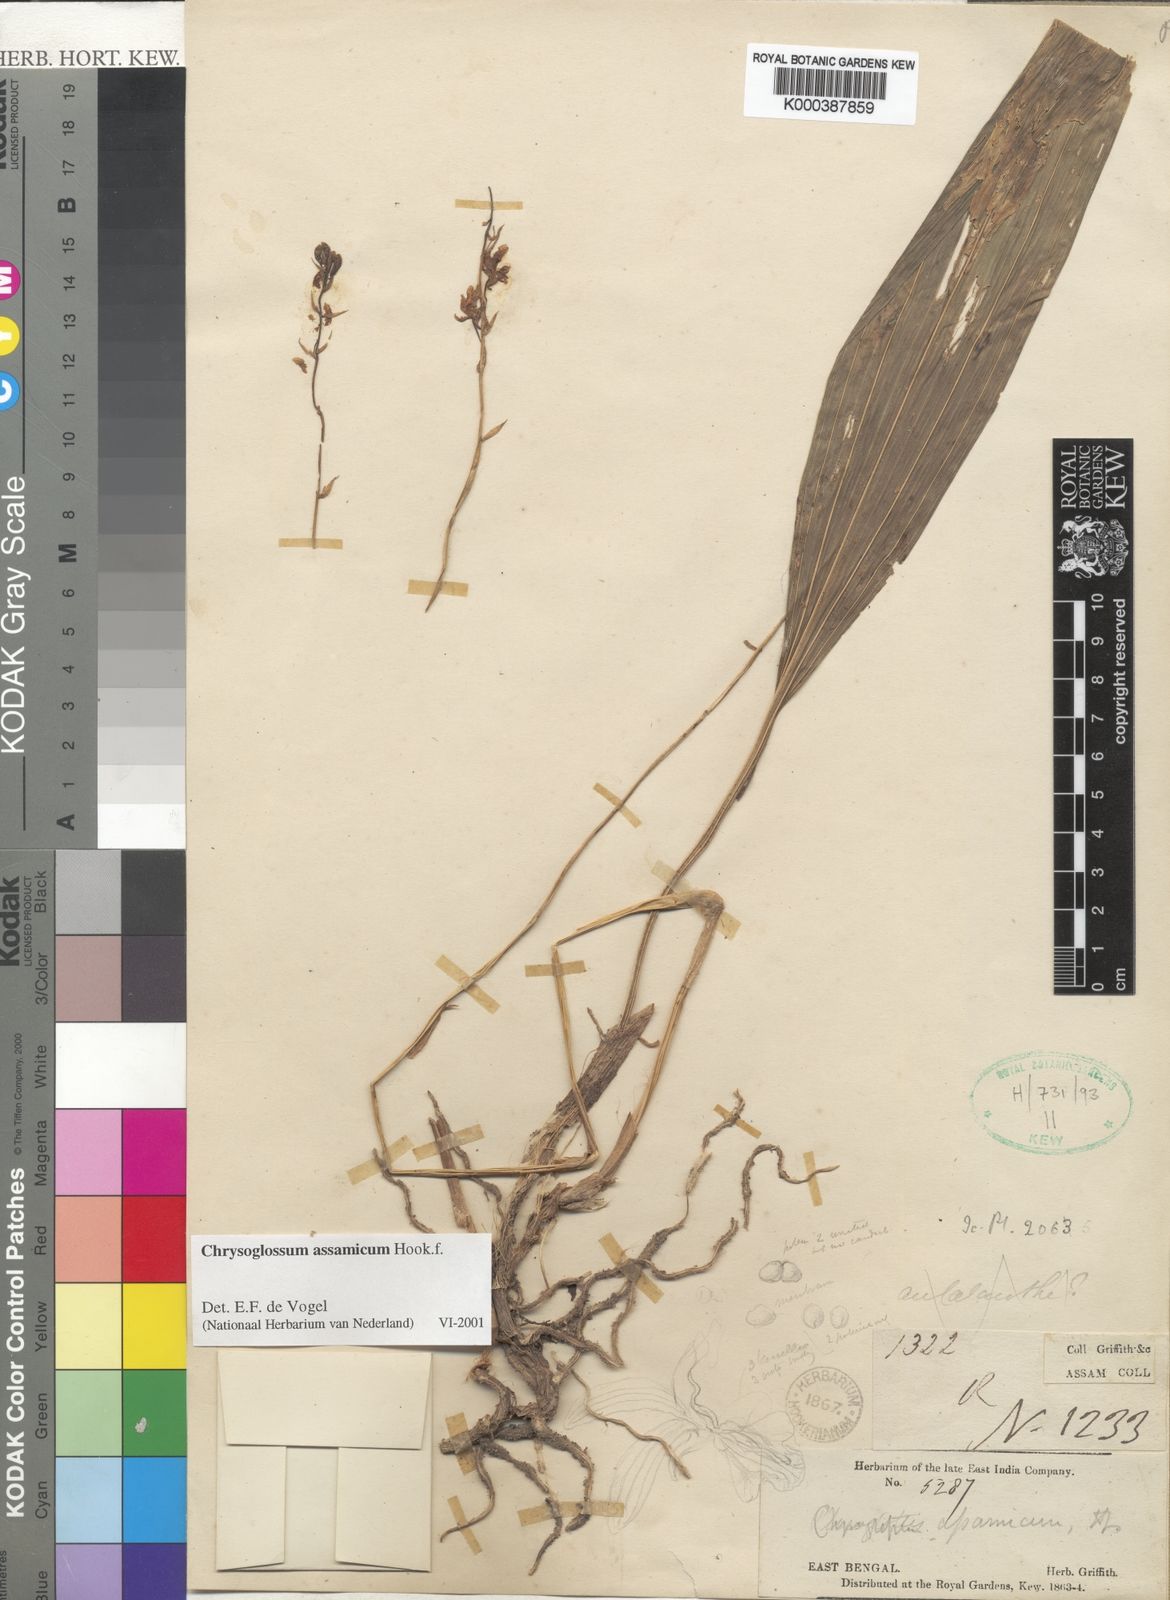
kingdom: Plantae
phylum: Tracheophyta
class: Liliopsida
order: Asparagales
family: Orchidaceae
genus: Chrysoglossum
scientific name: Chrysoglossum assamicum
